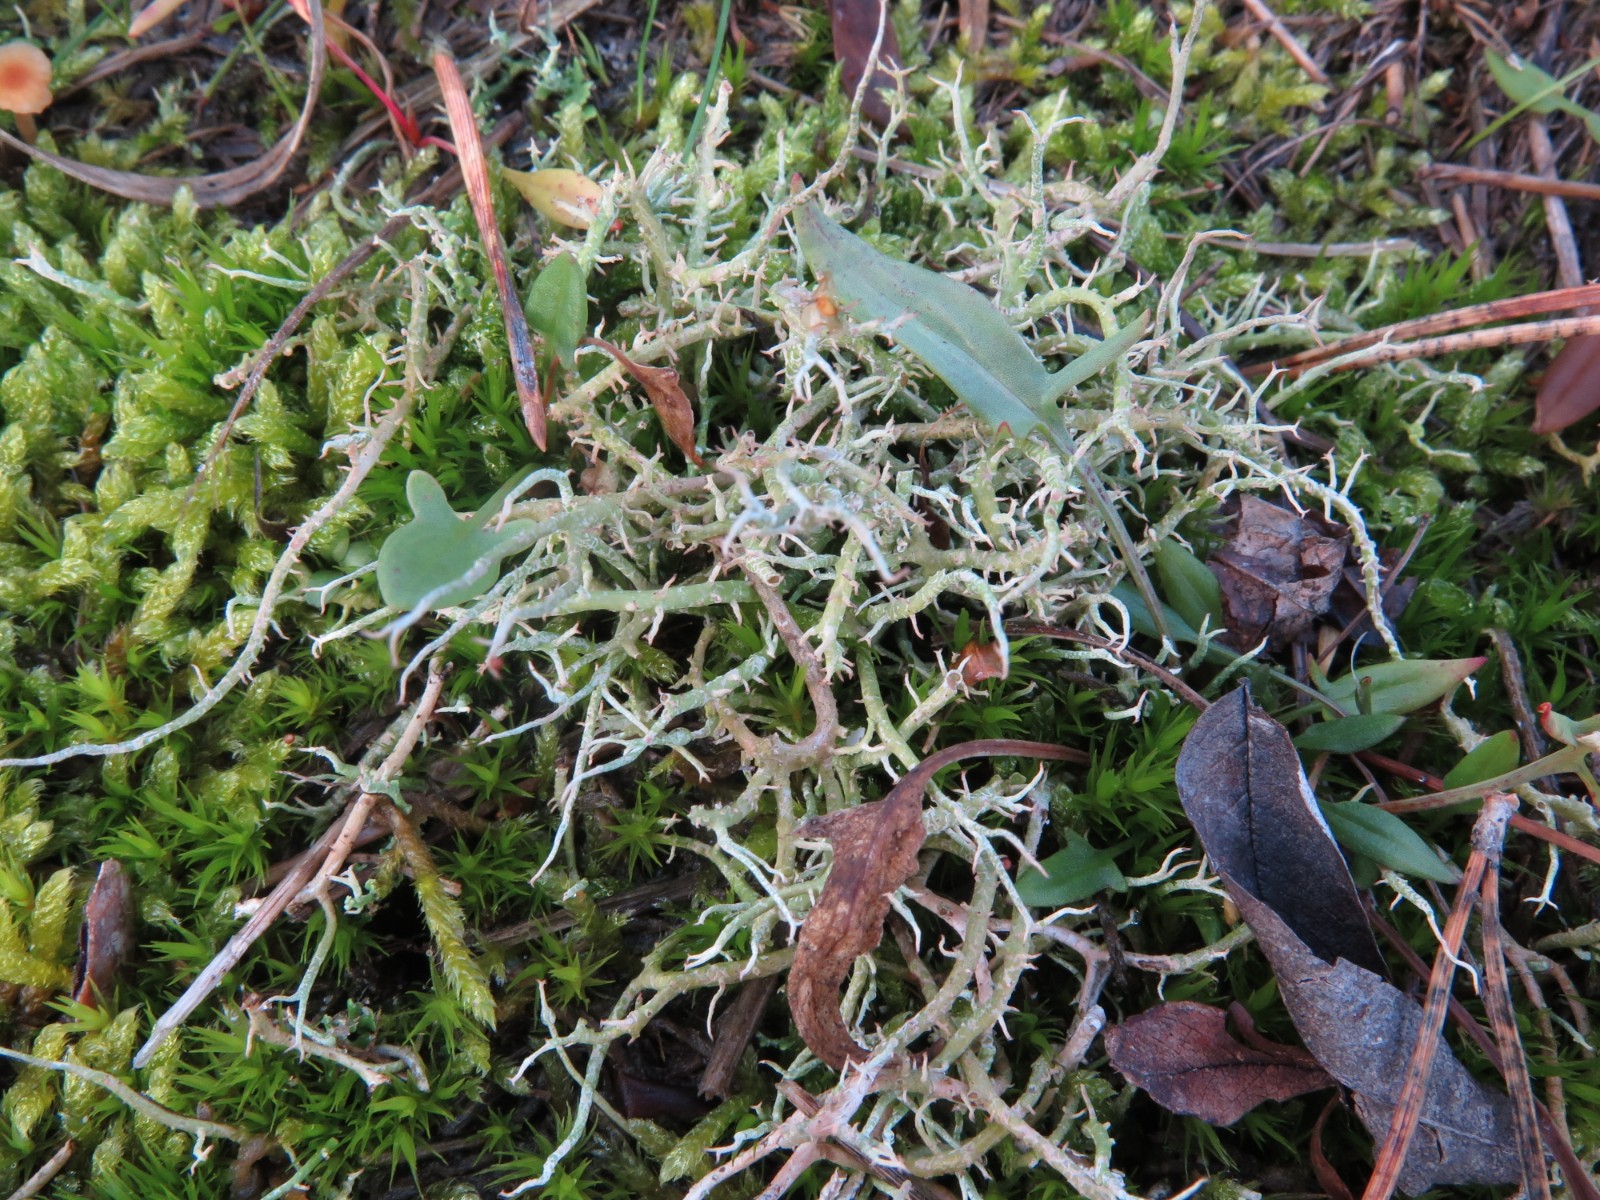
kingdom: Fungi
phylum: Ascomycota
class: Lecanoromycetes
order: Lecanorales
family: Cladoniaceae
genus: Cladonia
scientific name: Cladonia furcata
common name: kløftet bægerlav
